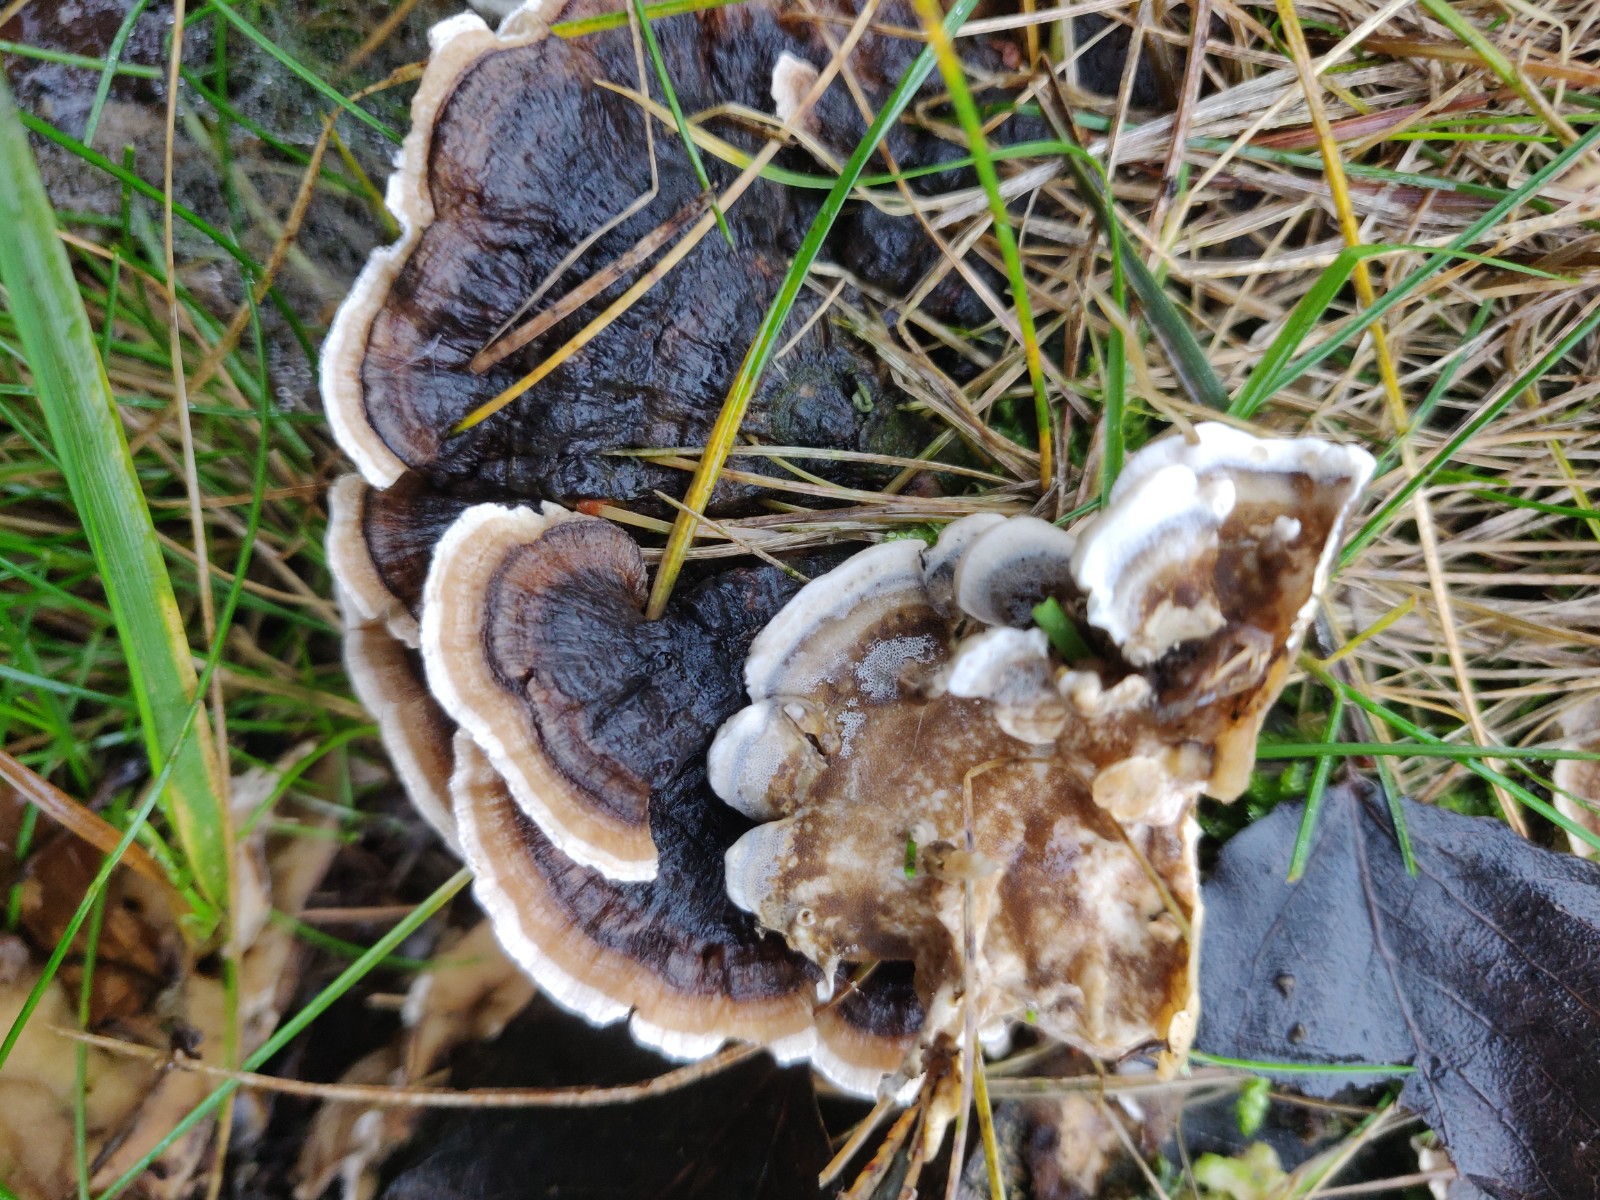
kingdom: Fungi
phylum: Basidiomycota
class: Agaricomycetes
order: Polyporales
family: Polyporaceae
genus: Trametes
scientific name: Trametes versicolor
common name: broget læderporesvamp
